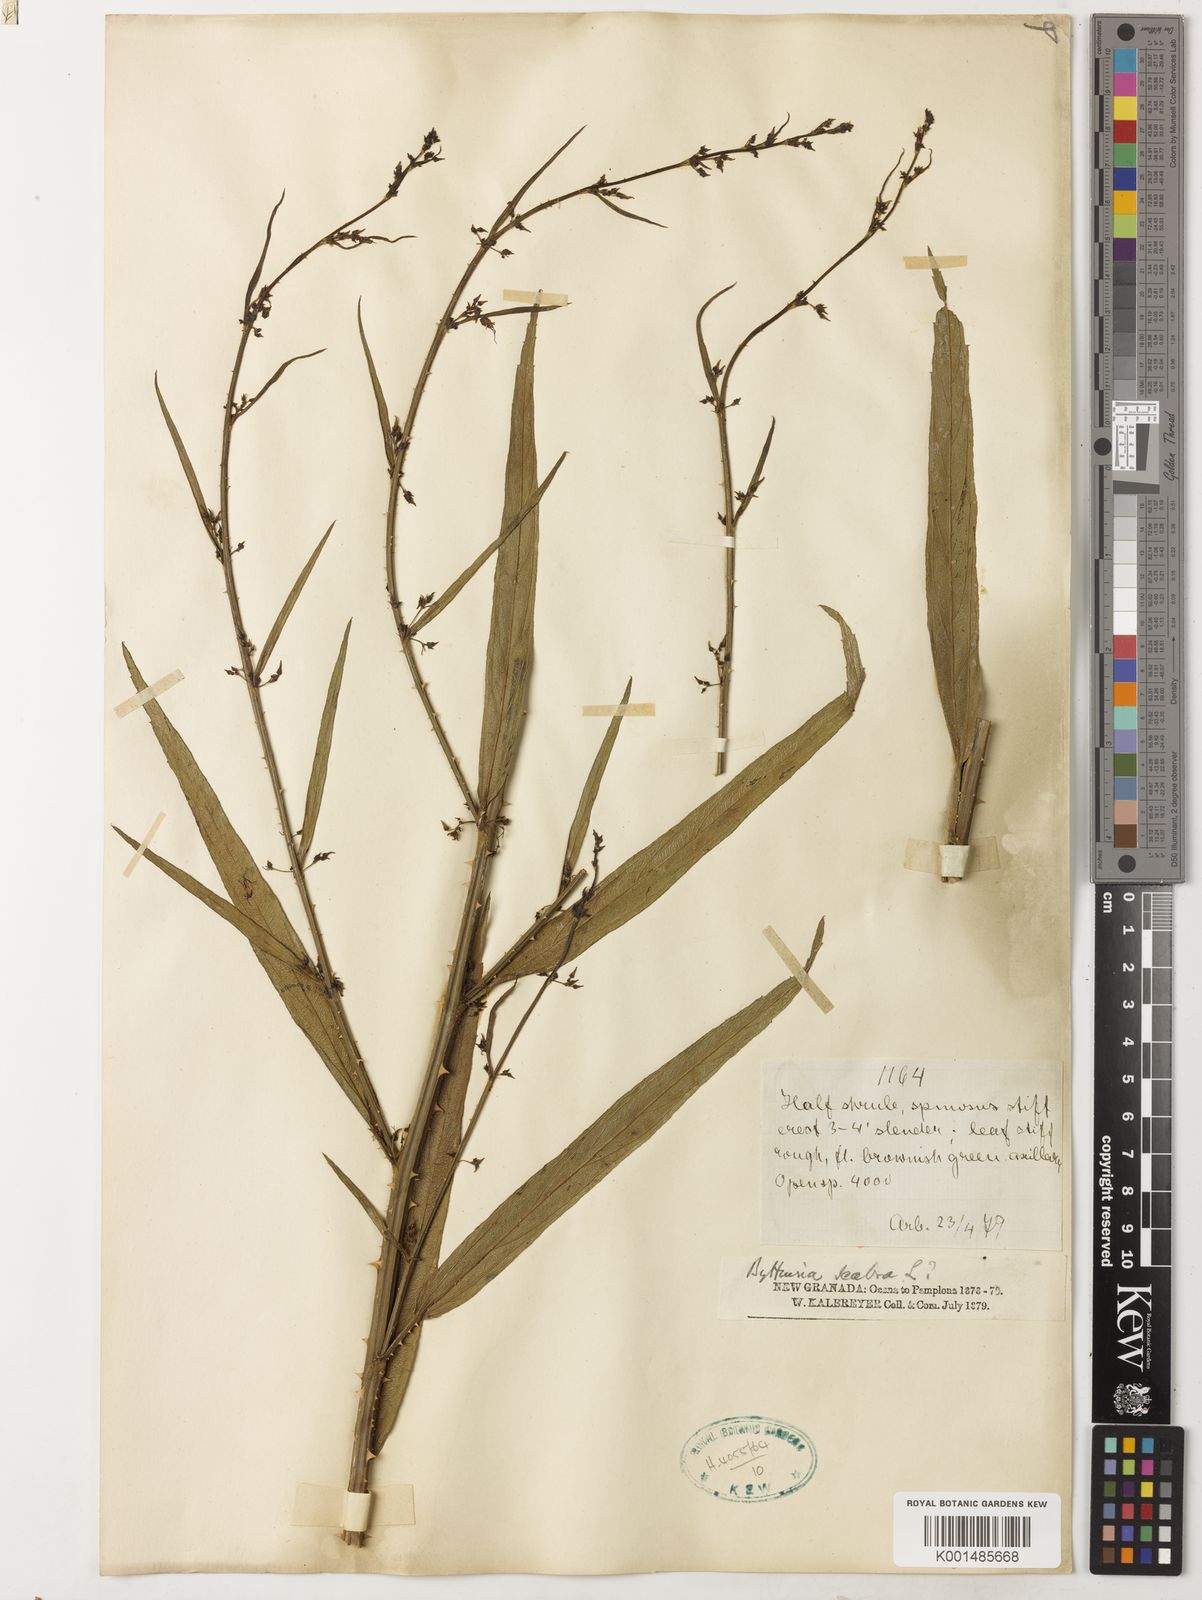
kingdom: Plantae
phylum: Tracheophyta
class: Magnoliopsida
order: Malvales
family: Malvaceae
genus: Byttneria
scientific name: Byttneria scabra
